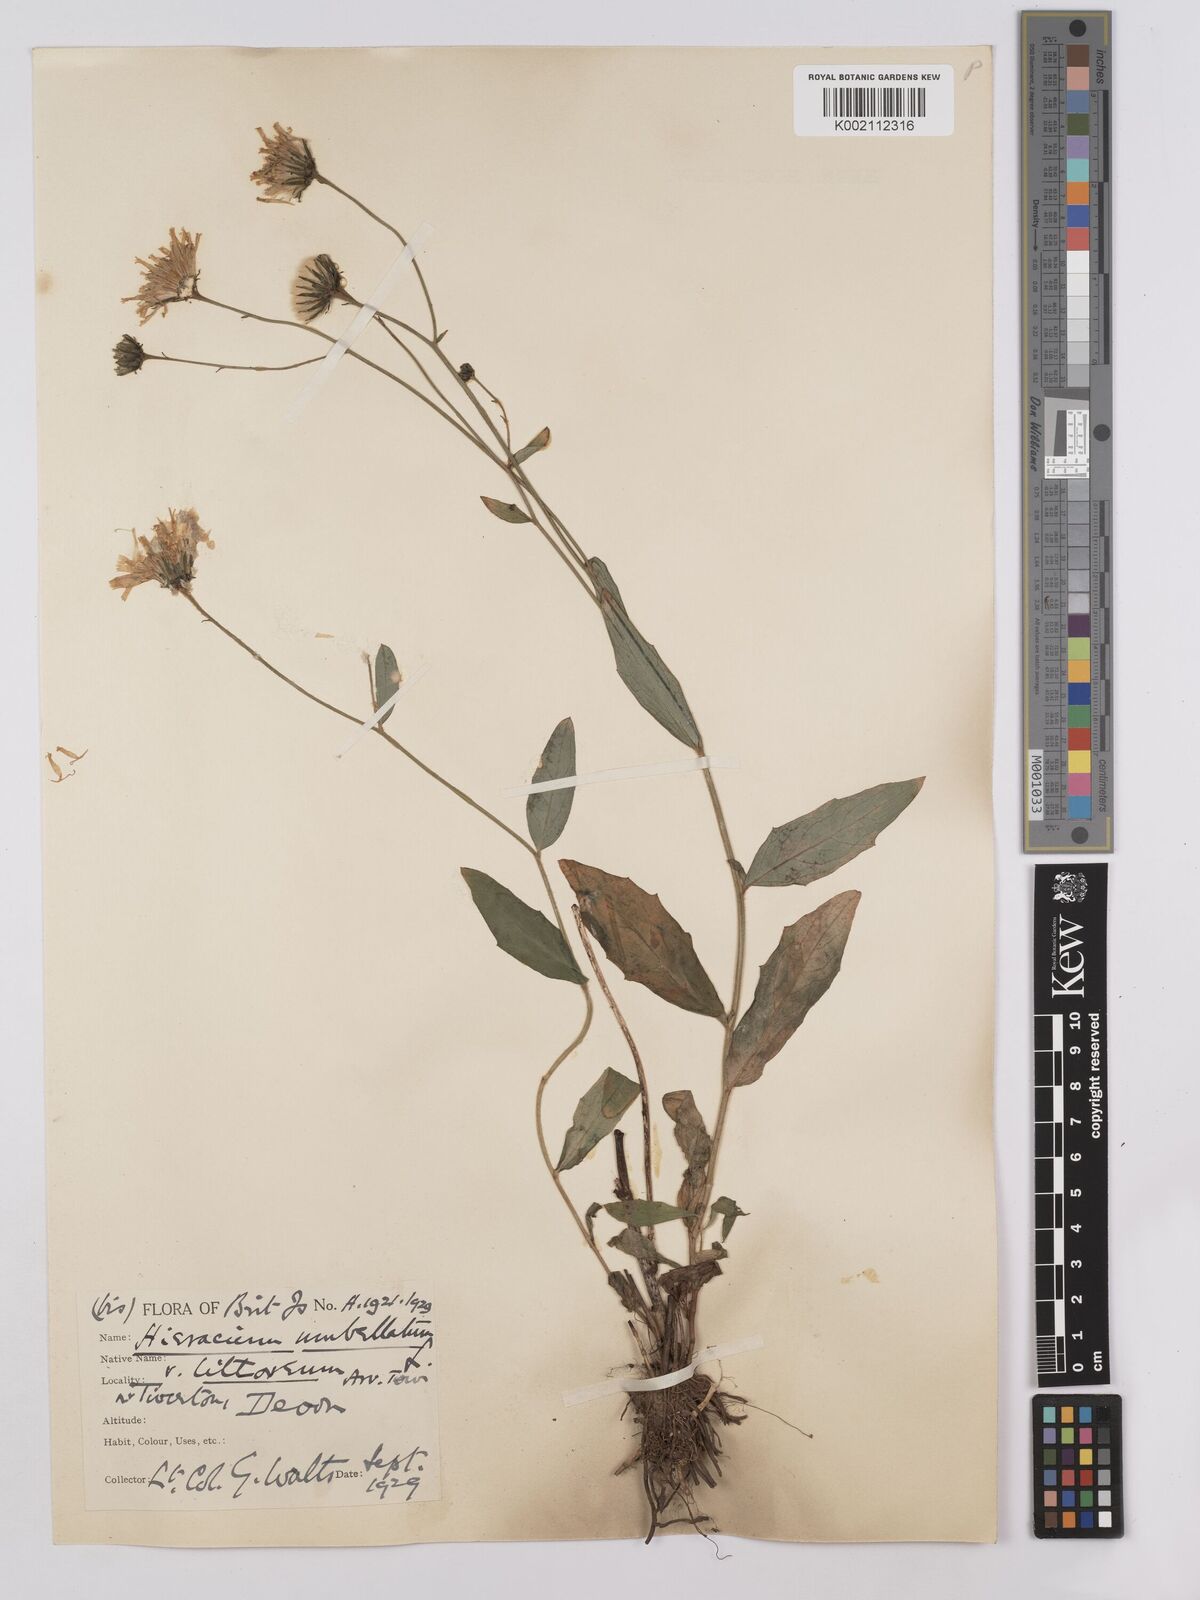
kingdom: Plantae
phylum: Tracheophyta
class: Magnoliopsida
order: Asterales
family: Asteraceae
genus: Hieracium
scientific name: Hieracium umbellatum
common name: Northern hawkweed
